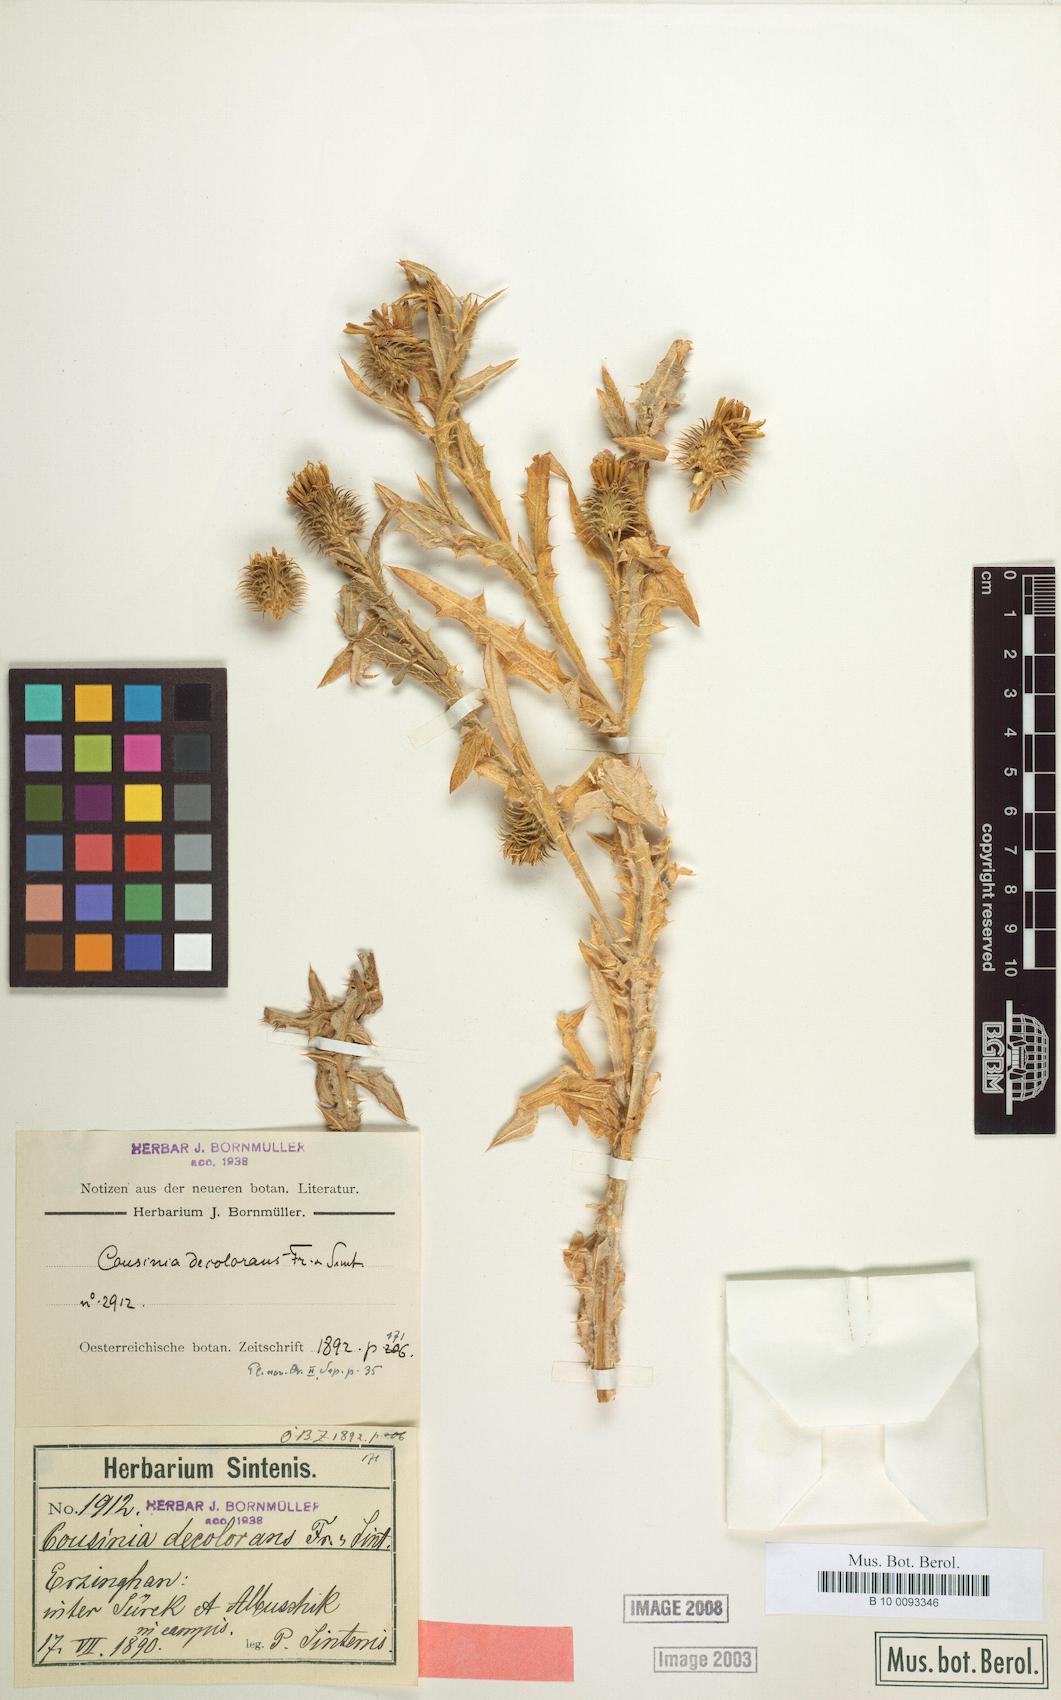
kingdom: Plantae
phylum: Tracheophyta
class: Magnoliopsida
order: Asterales
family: Asteraceae
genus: Cousinia
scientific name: Cousinia decolorans
